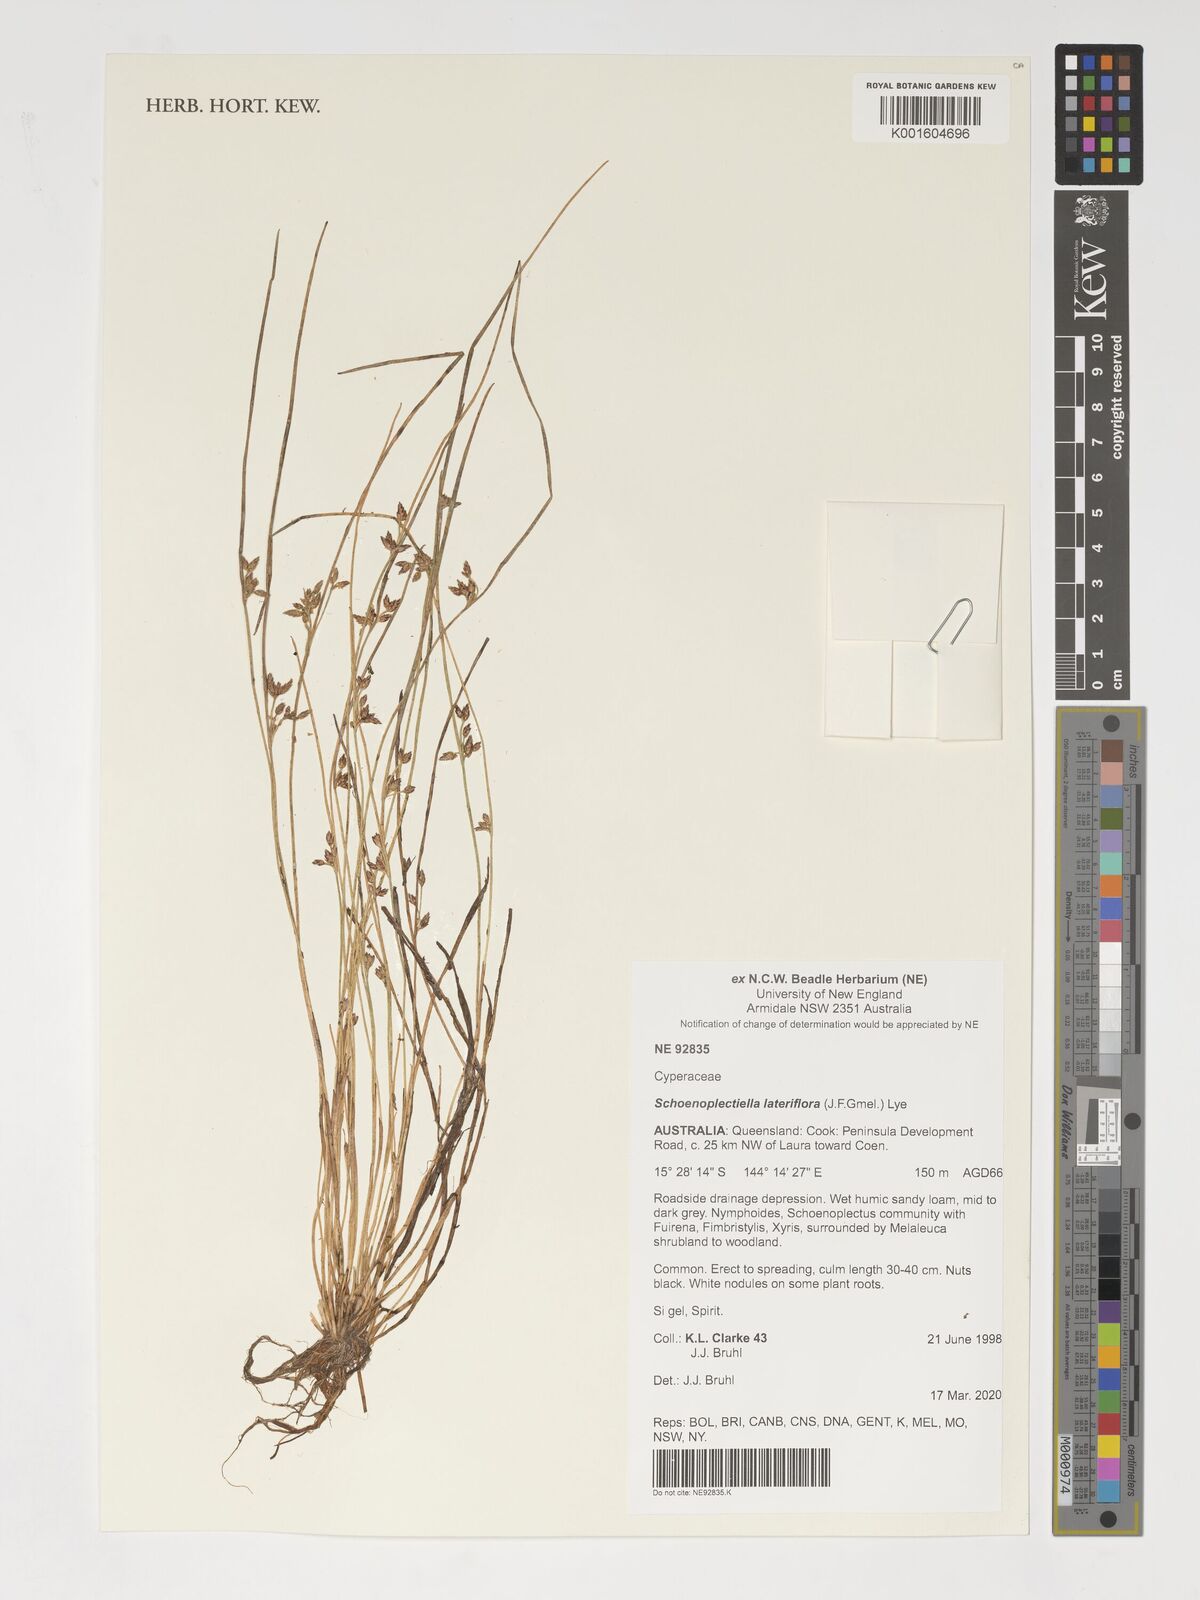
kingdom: Plantae
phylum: Tracheophyta
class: Liliopsida
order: Poales
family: Cyperaceae
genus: Schoenoplectiella
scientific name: Schoenoplectiella lateriflora
